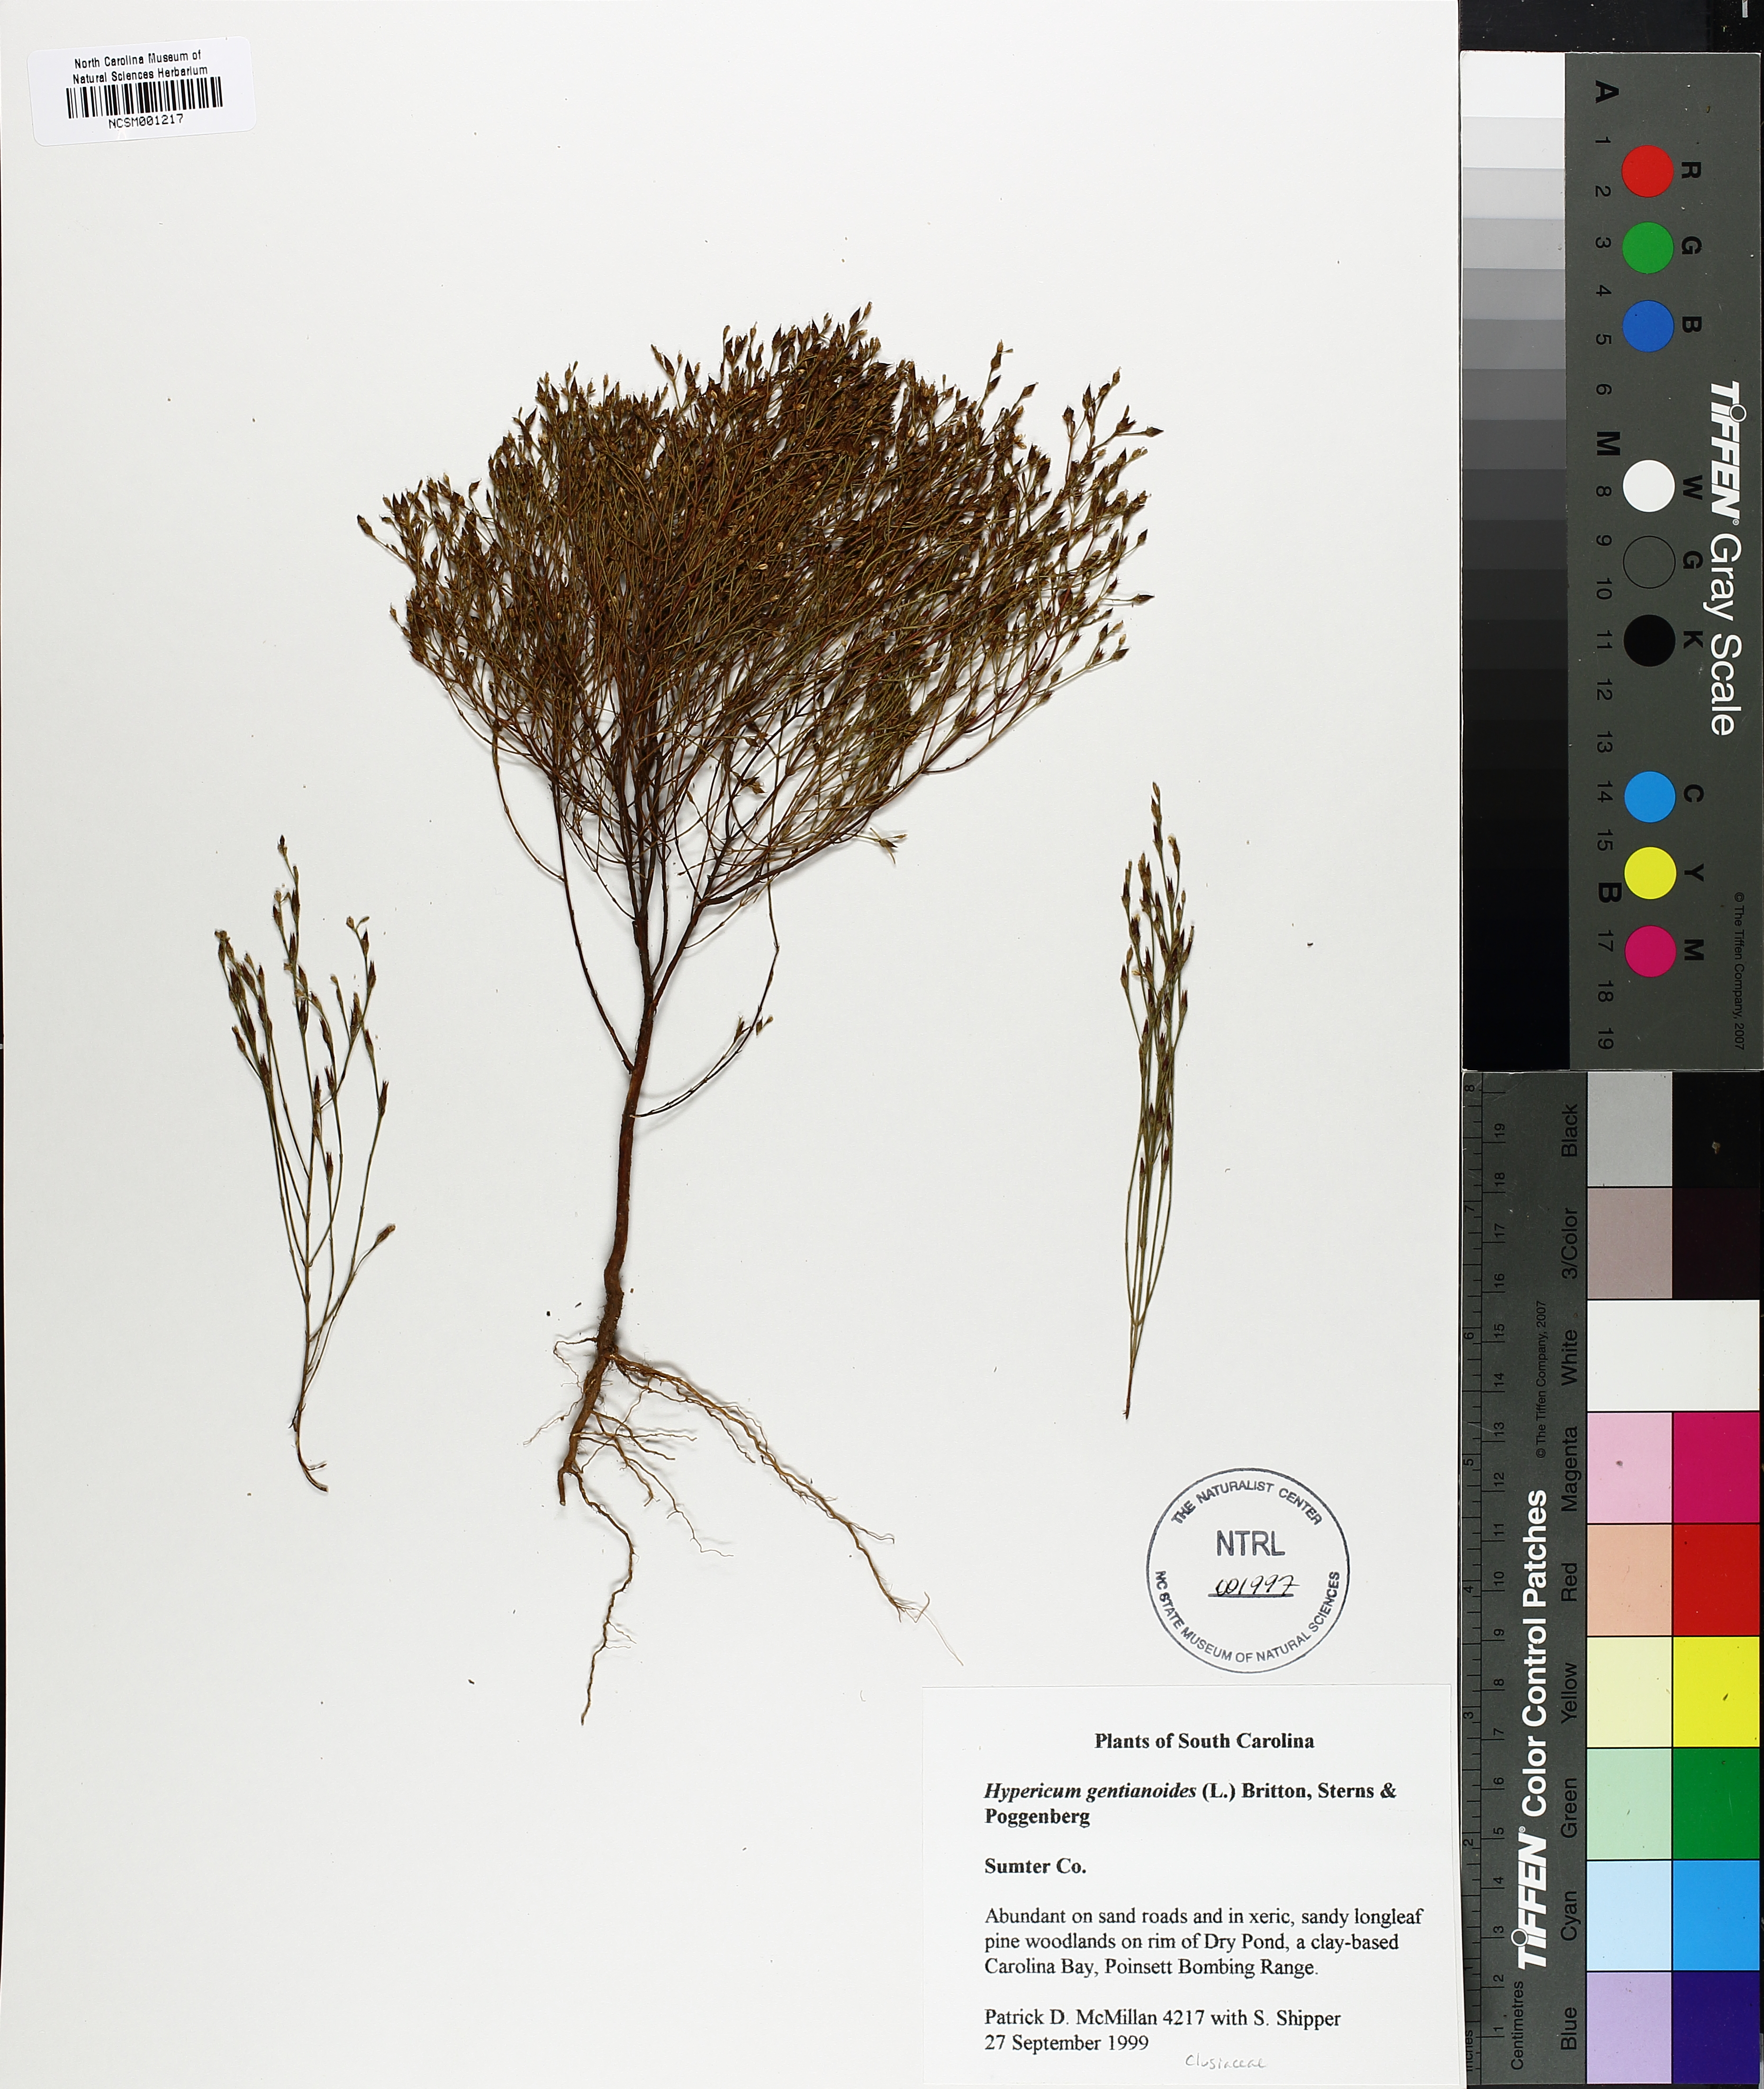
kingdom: Plantae
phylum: Tracheophyta
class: Magnoliopsida
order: Malpighiales
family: Hypericaceae
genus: Hypericum
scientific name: Hypericum gentianoides
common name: Gentian-leaved st. john's-wort
